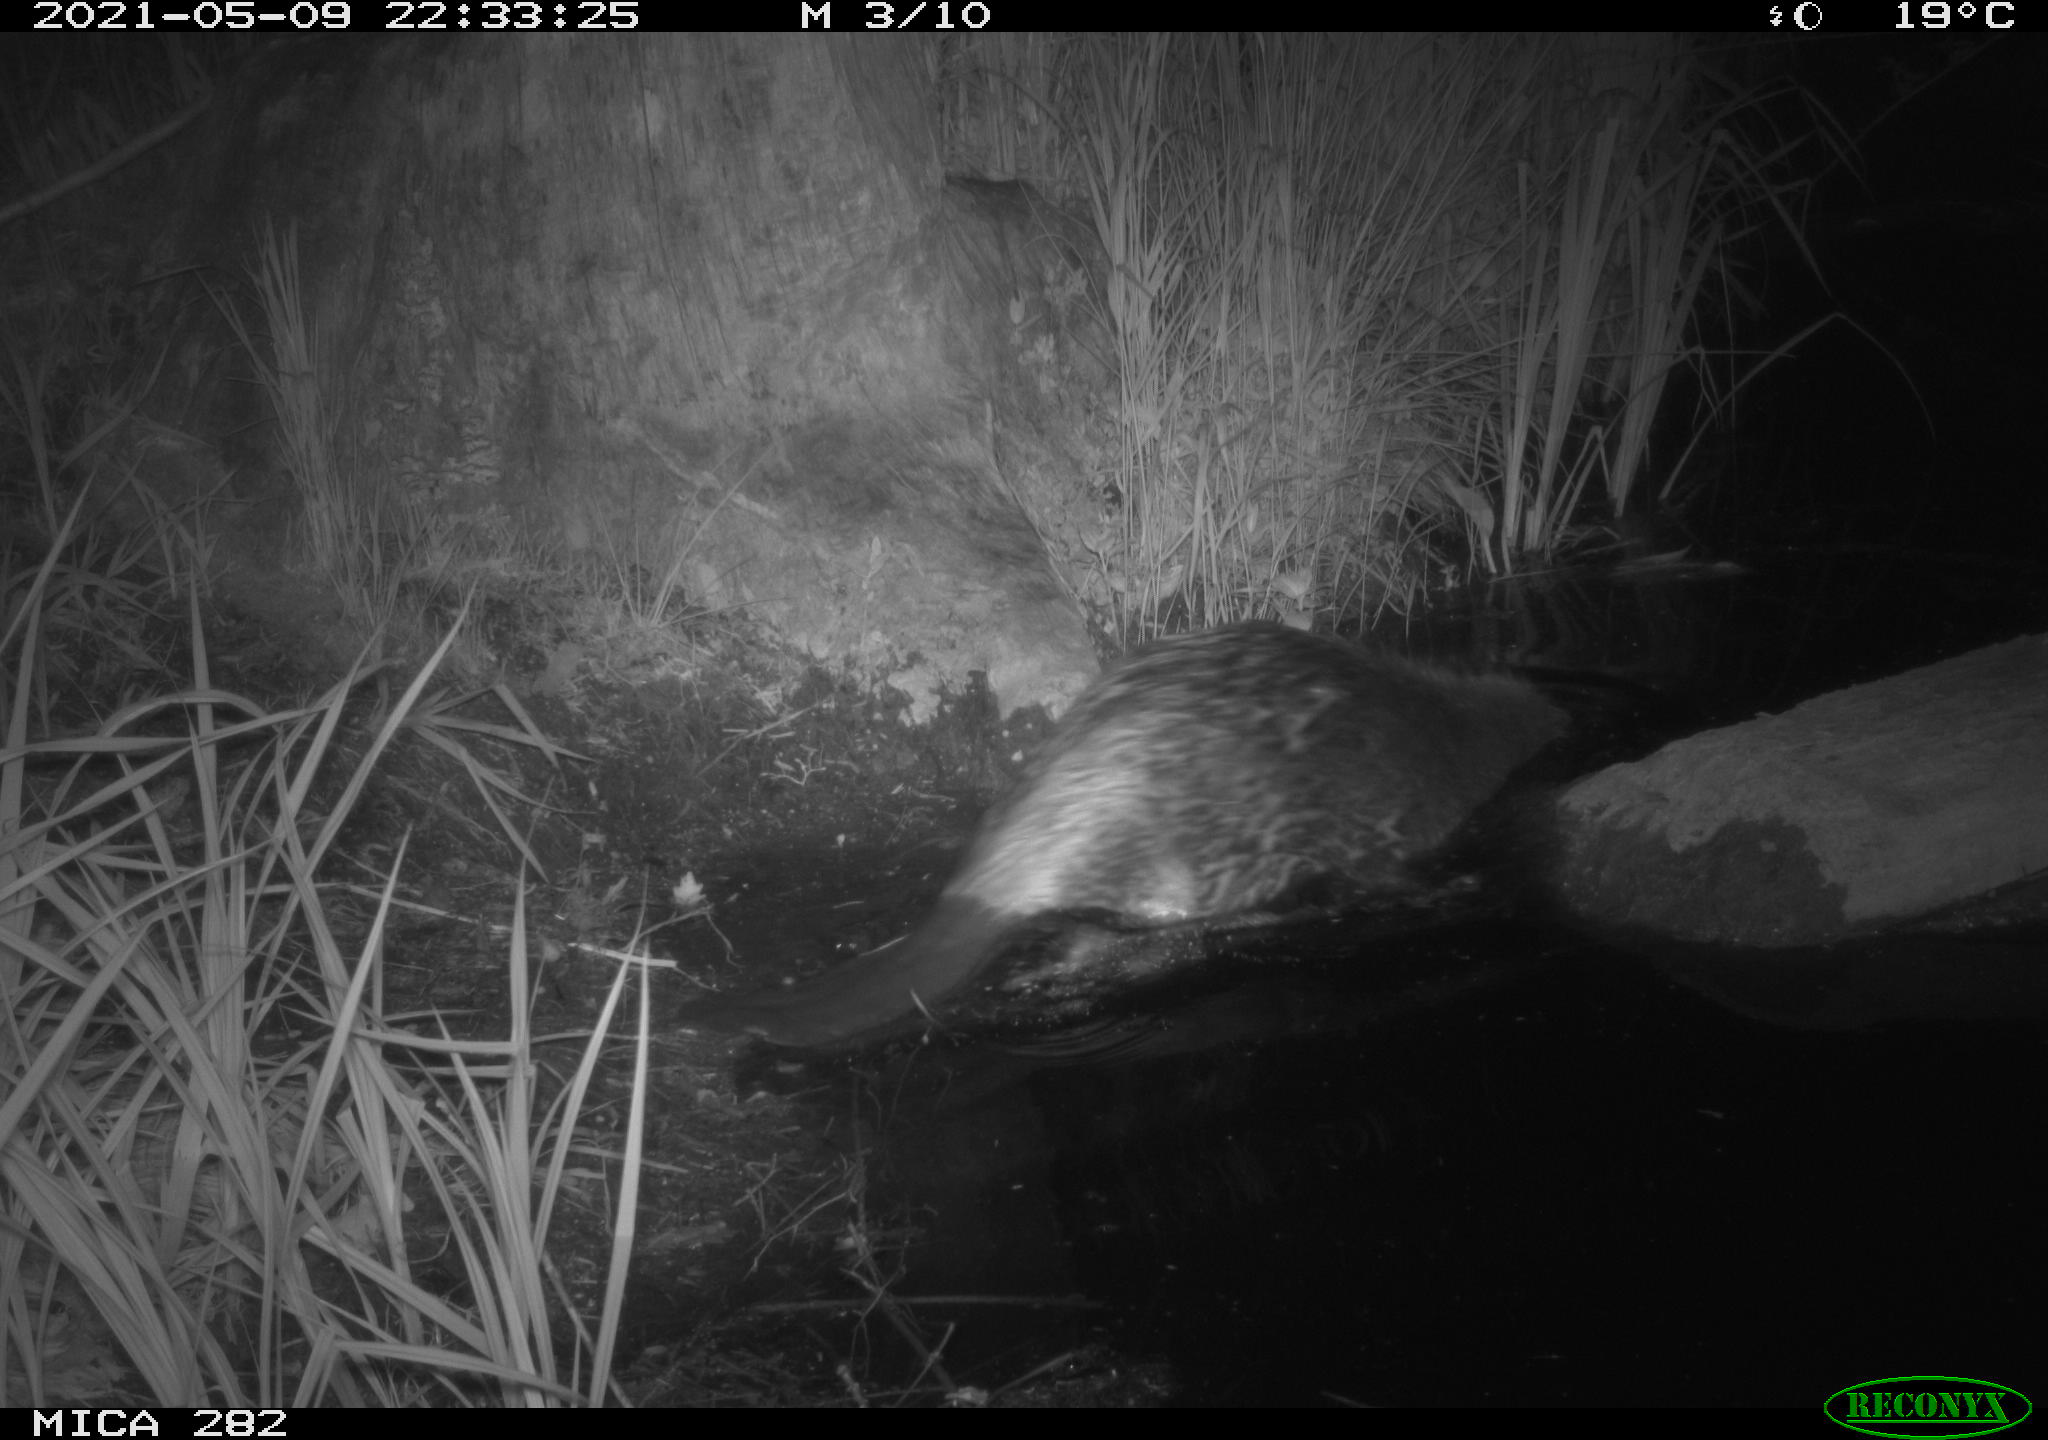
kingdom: Animalia
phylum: Chordata
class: Mammalia
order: Rodentia
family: Castoridae
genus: Castor
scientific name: Castor fiber
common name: Eurasian beaver
